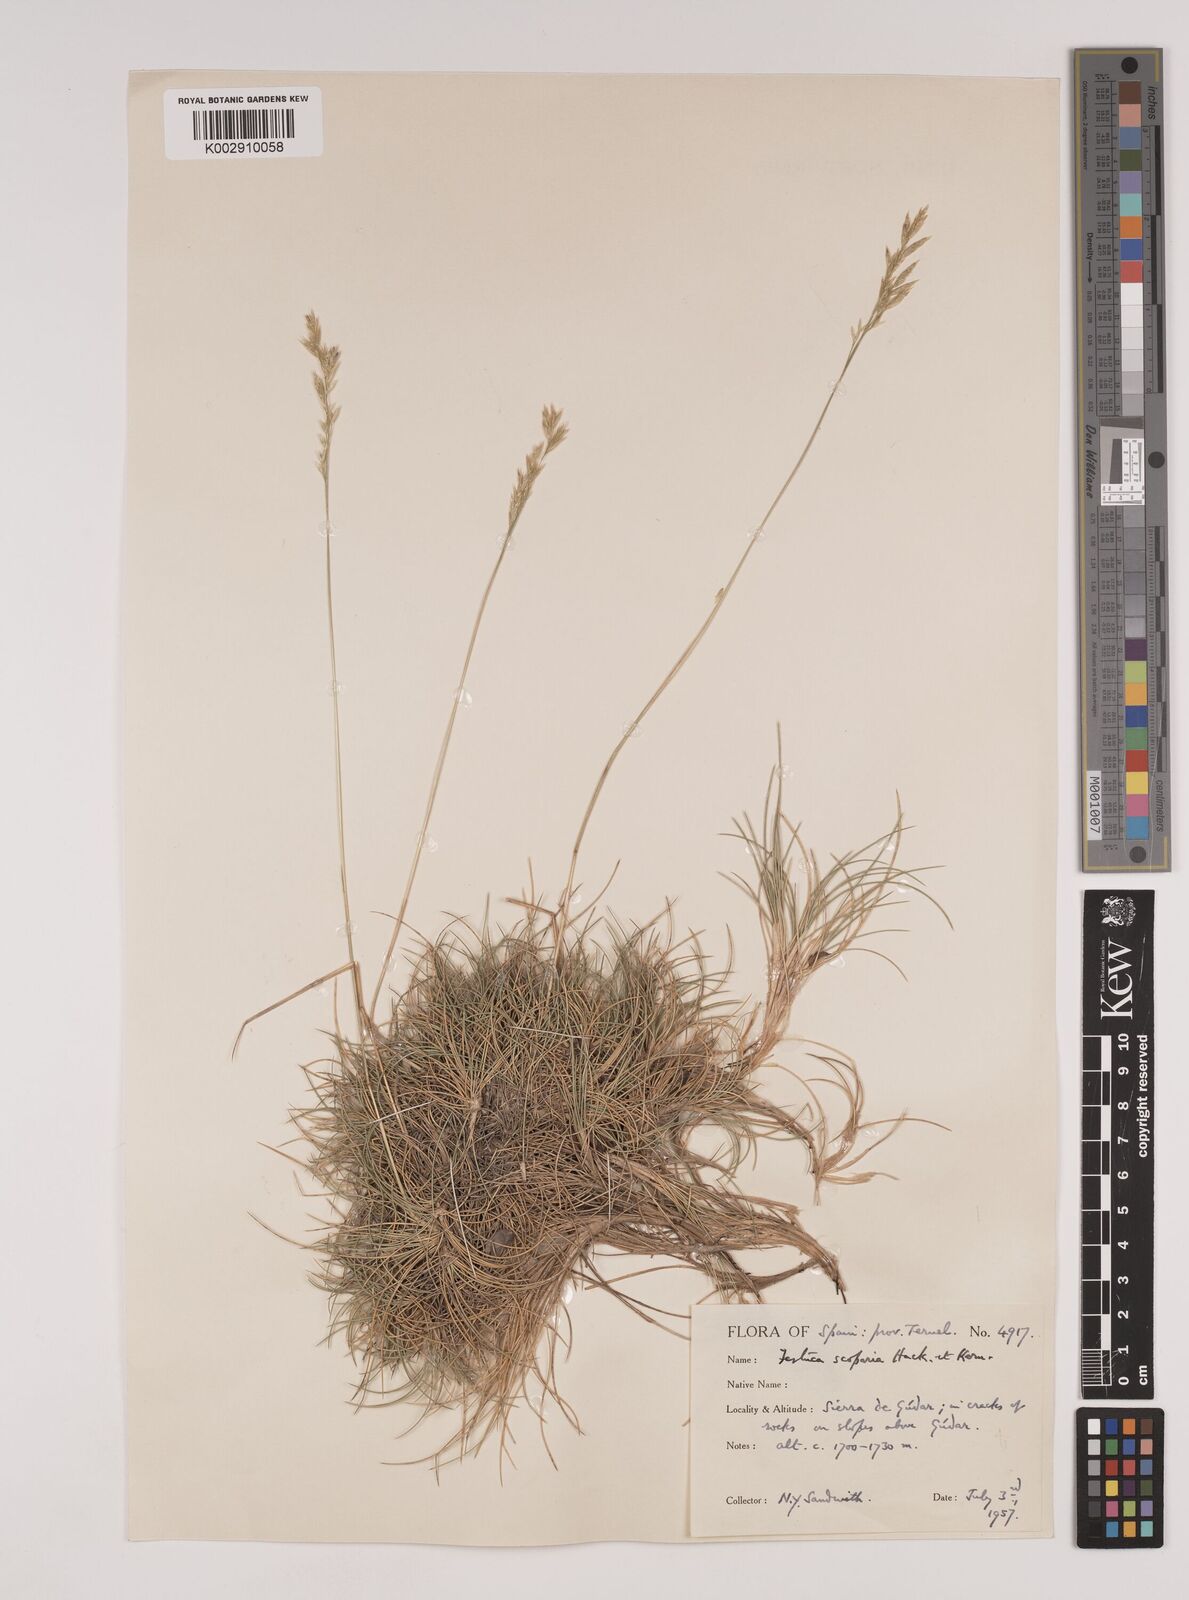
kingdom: Plantae
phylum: Tracheophyta
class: Liliopsida
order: Poales
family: Poaceae
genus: Festuca
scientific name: Festuca gautieri
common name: Spiky fescue
